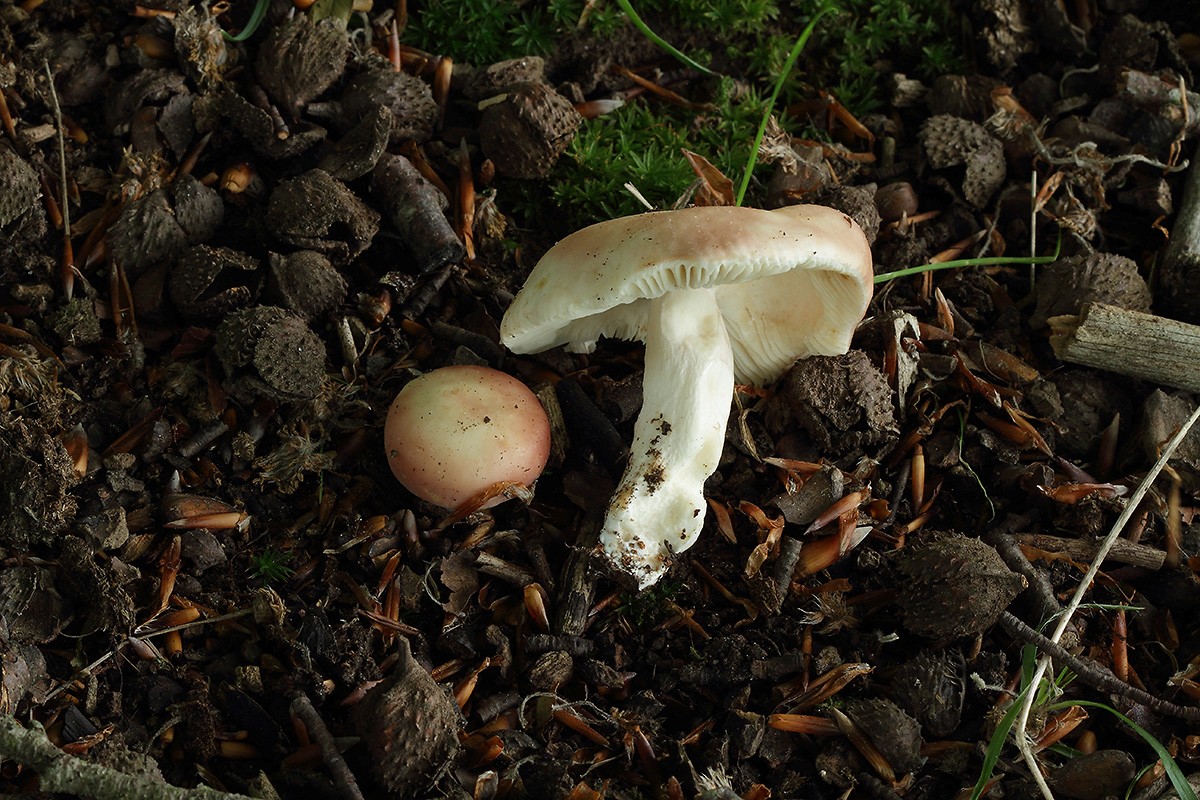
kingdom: Fungi
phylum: Basidiomycota
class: Agaricomycetes
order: Russulales
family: Russulaceae
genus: Russula
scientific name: Russula vesca
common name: spiselig skørhat
